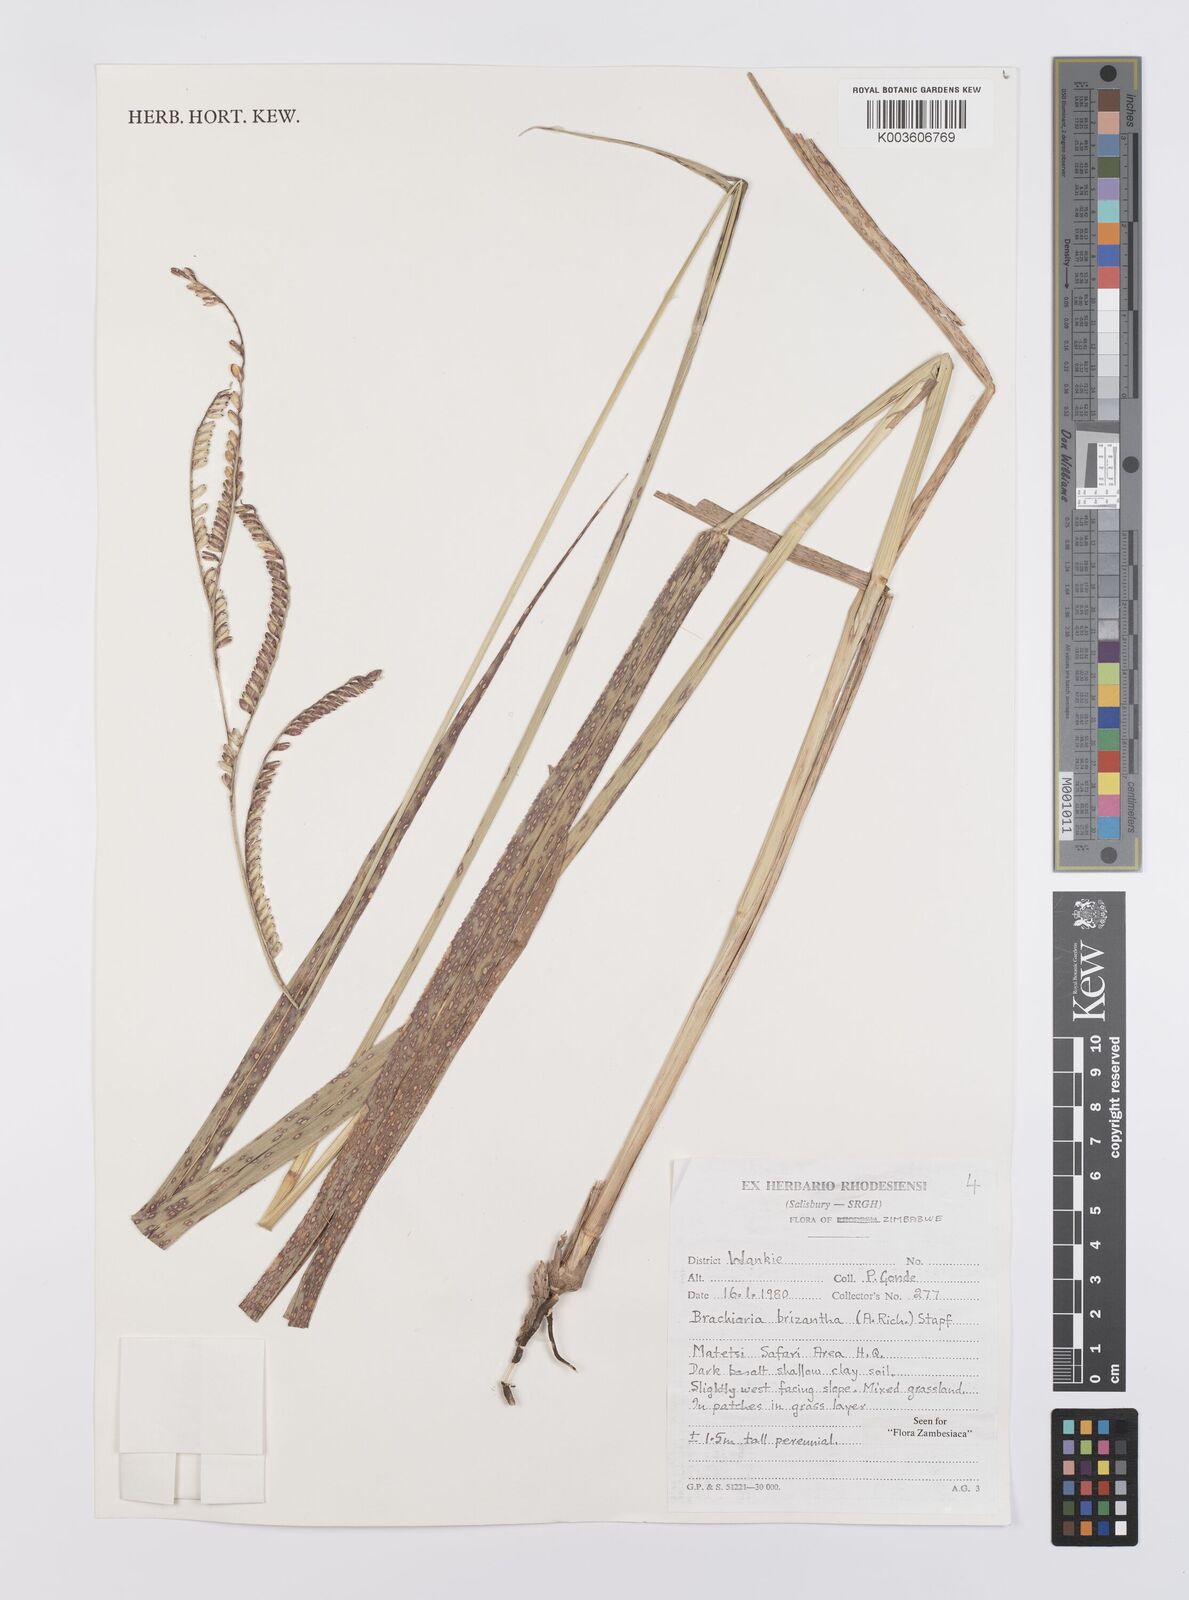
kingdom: Plantae
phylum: Tracheophyta
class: Liliopsida
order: Poales
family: Poaceae
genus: Urochloa
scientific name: Urochloa brizantha
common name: Palisade signalgrass
